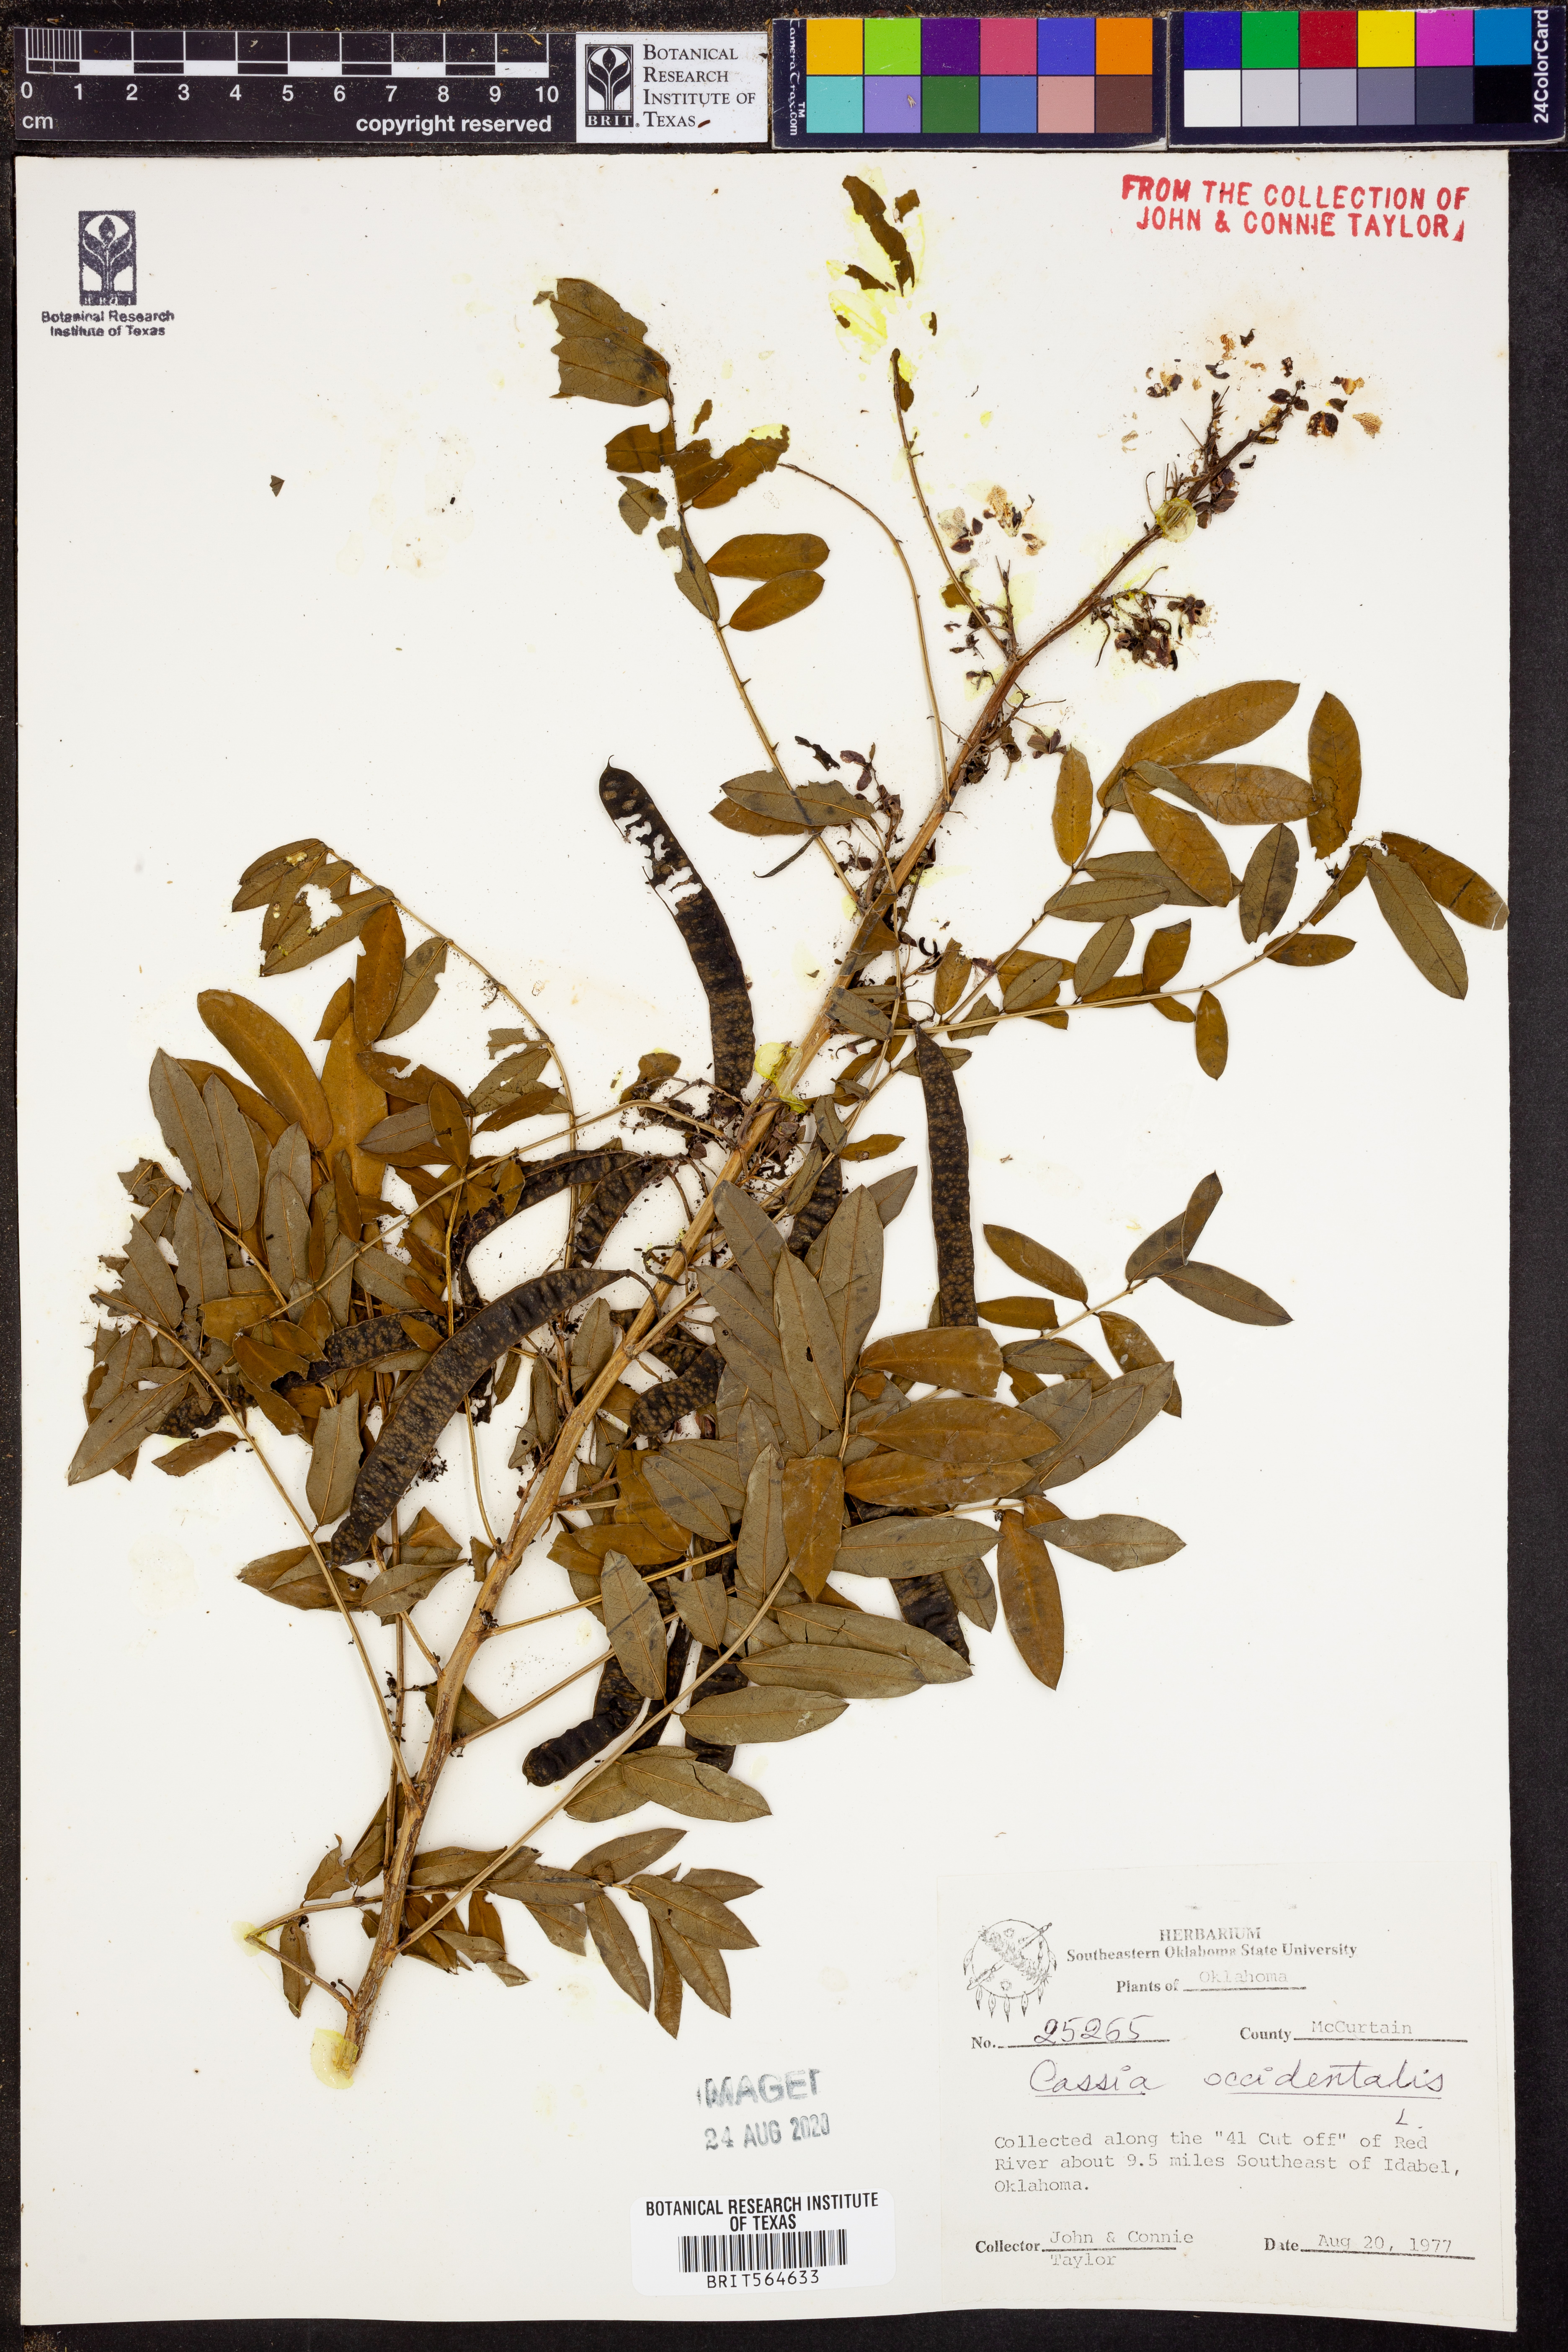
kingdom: Plantae
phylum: Tracheophyta
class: Magnoliopsida
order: Fabales
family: Fabaceae
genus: Senna
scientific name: Senna occidentalis
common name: Septicweed
